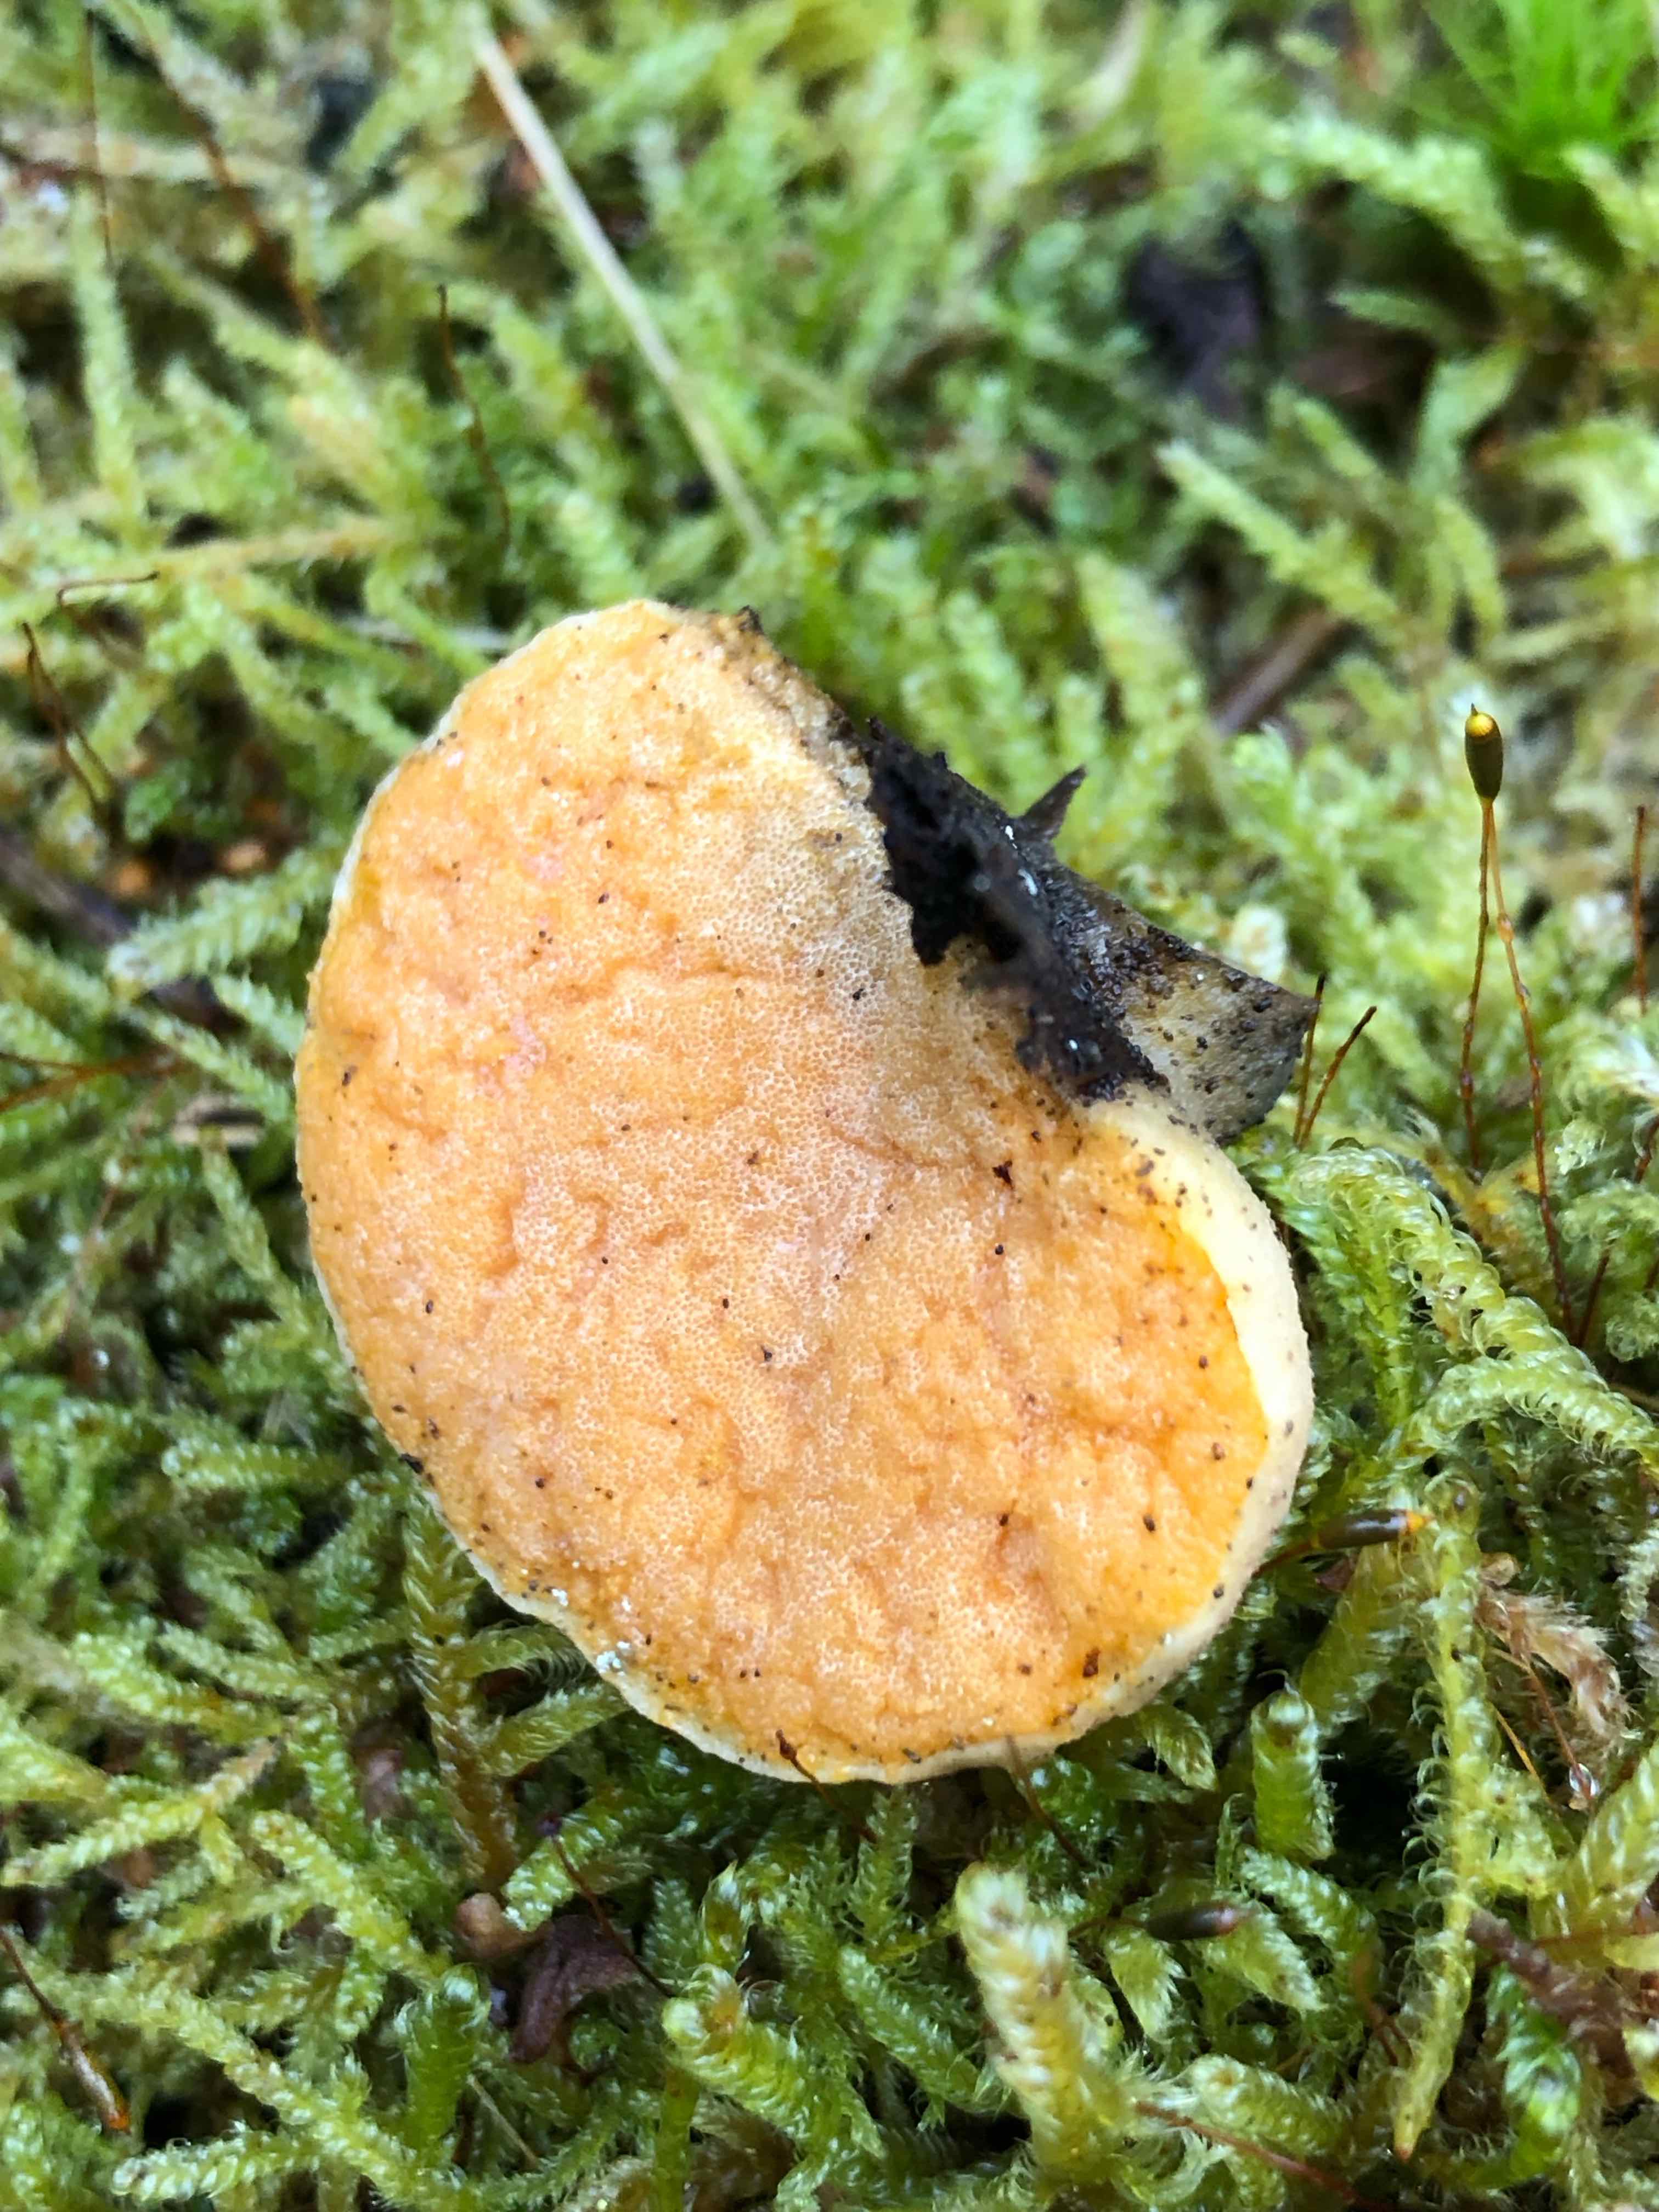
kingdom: Fungi
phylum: Ascomycota
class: Sordariomycetes
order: Hypocreales
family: Hypocreaceae
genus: Protocrea
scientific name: Protocrea pallida
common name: bleg kødkerne
